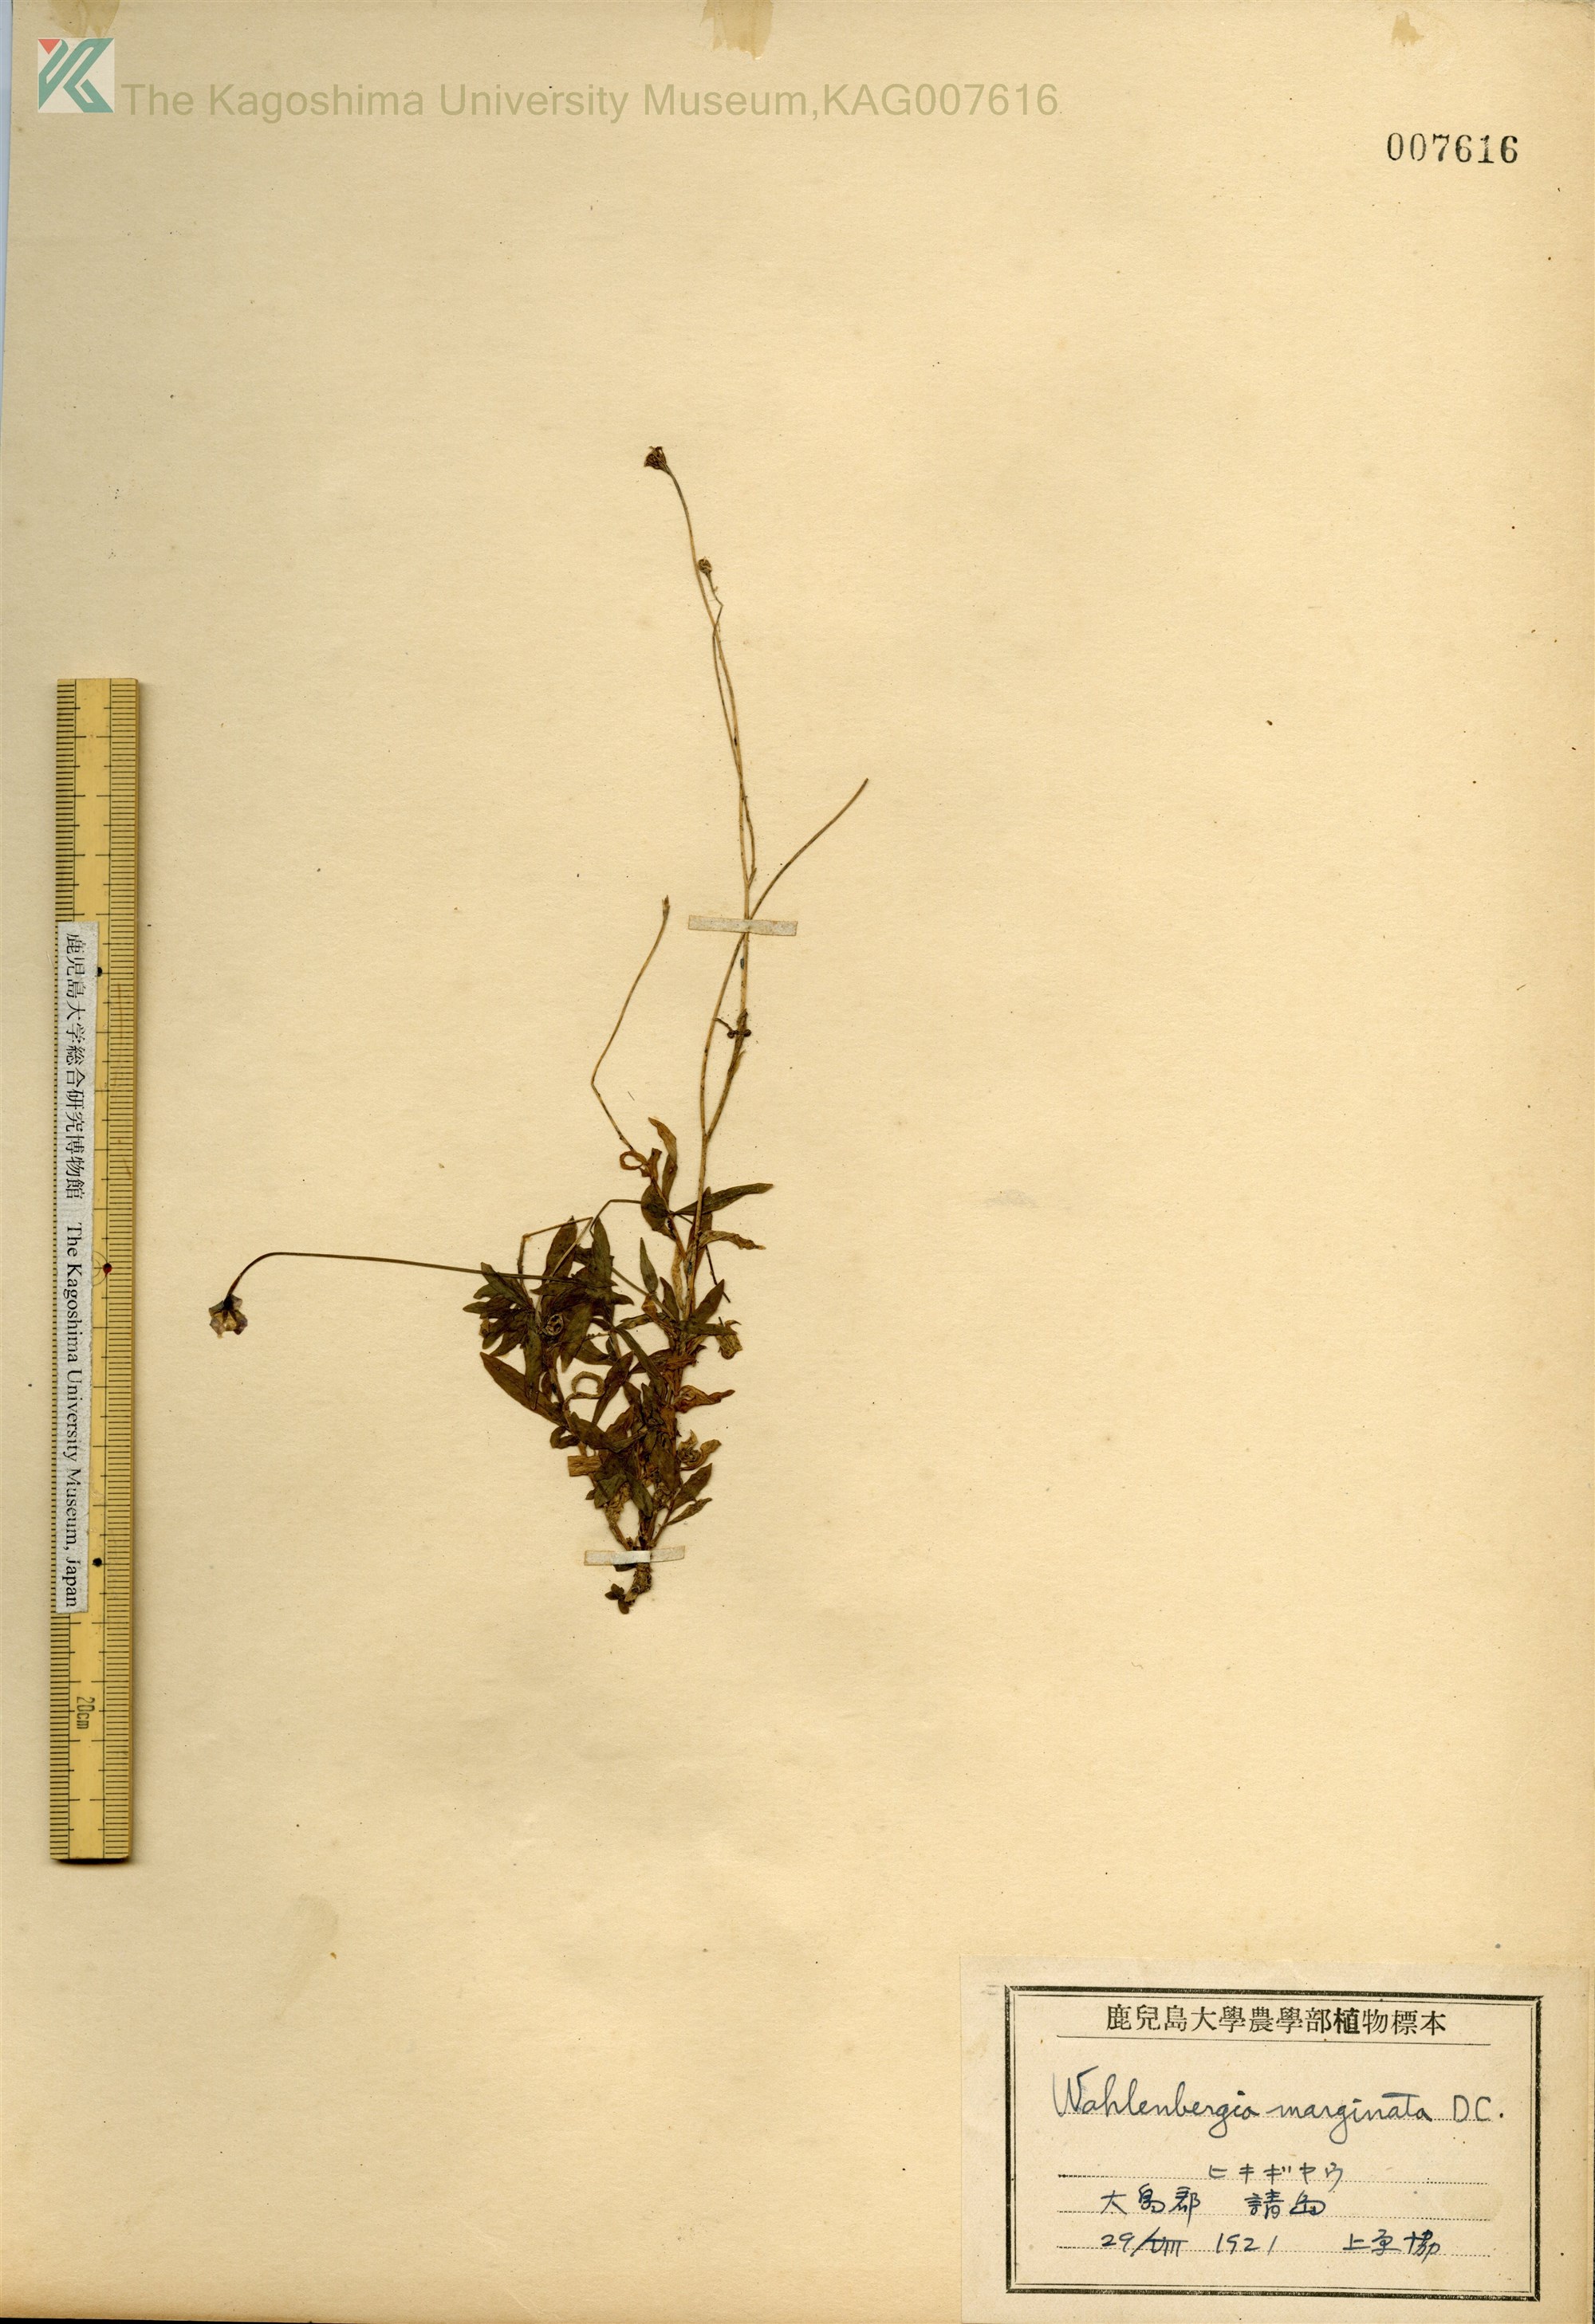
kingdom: Plantae
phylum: Tracheophyta
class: Magnoliopsida
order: Asterales
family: Campanulaceae
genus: Wahlenbergia
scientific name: Wahlenbergia marginata
